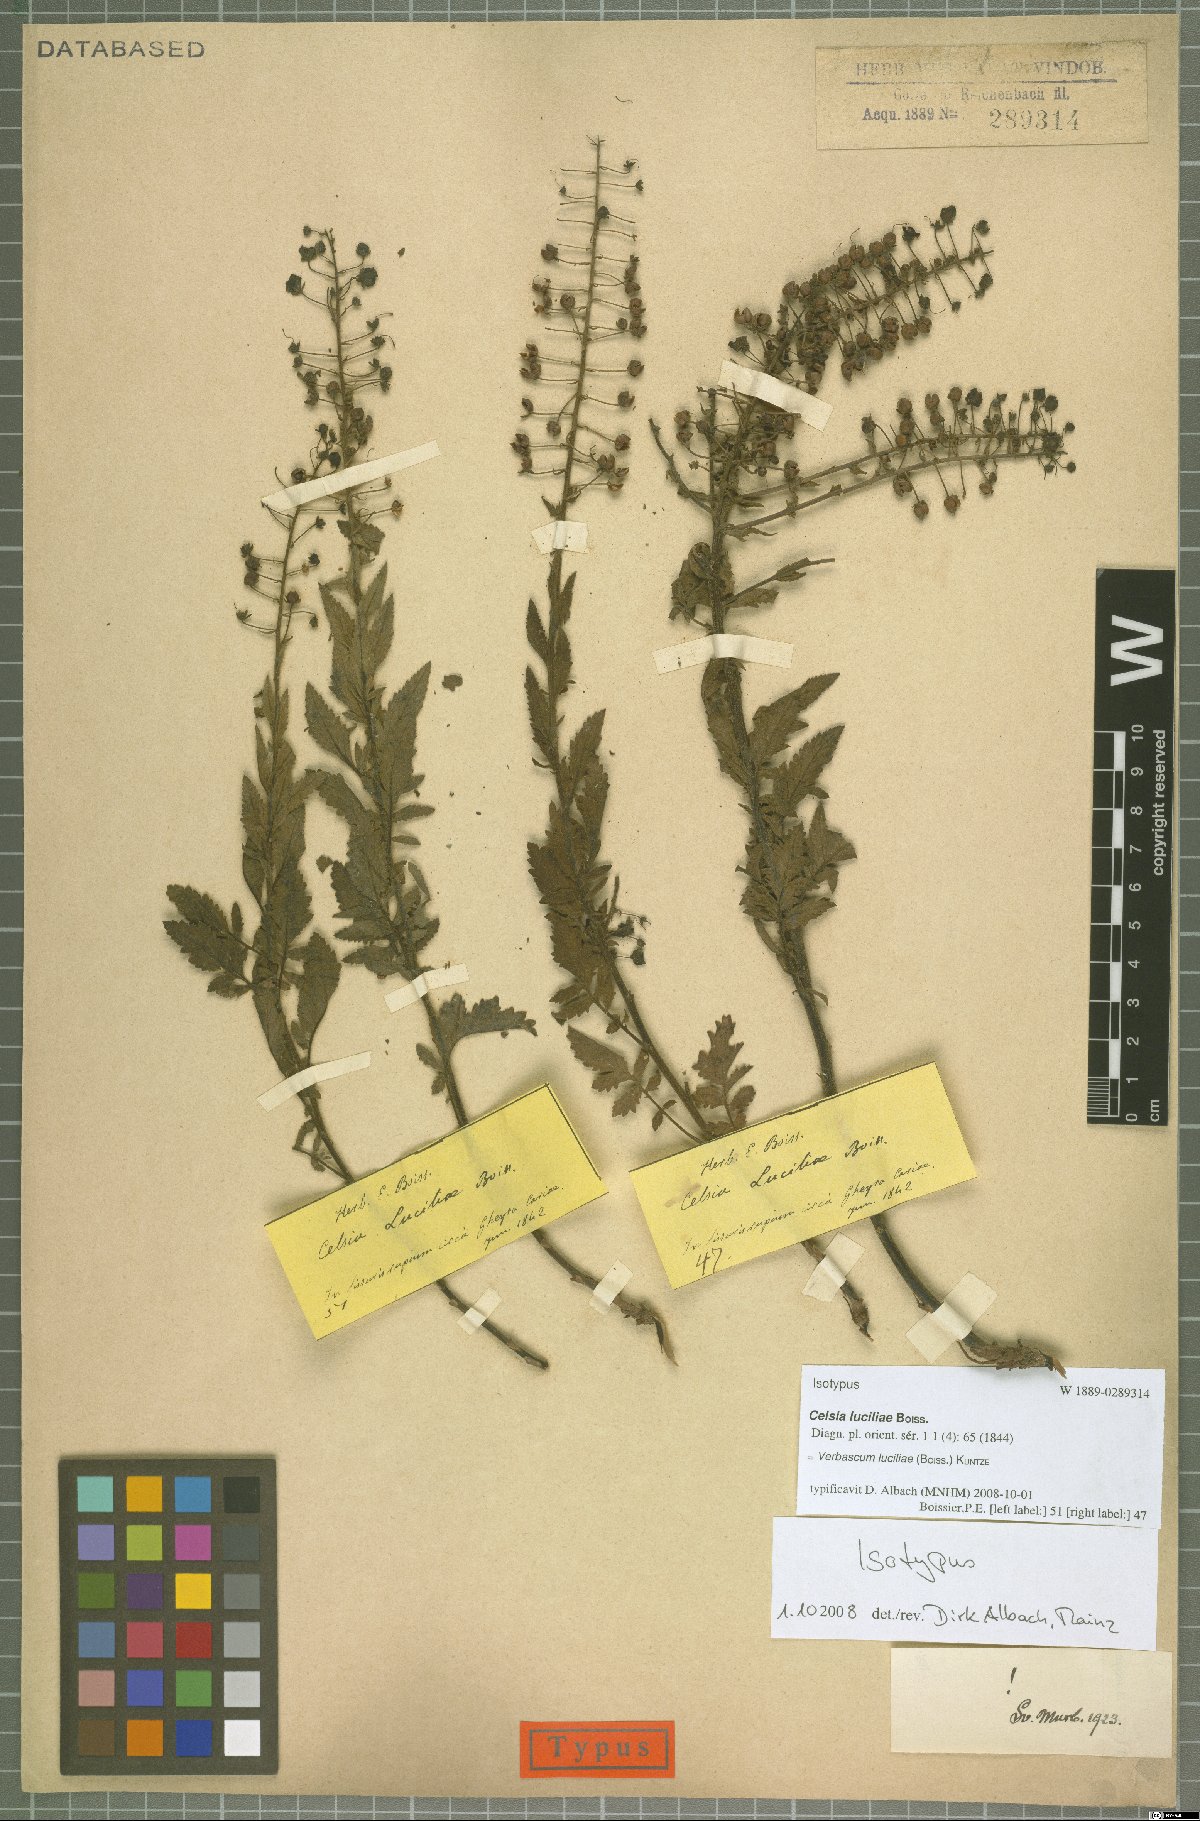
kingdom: Plantae
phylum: Tracheophyta
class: Magnoliopsida
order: Lamiales
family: Scrophulariaceae
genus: Verbascum
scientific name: Verbascum luciliae
